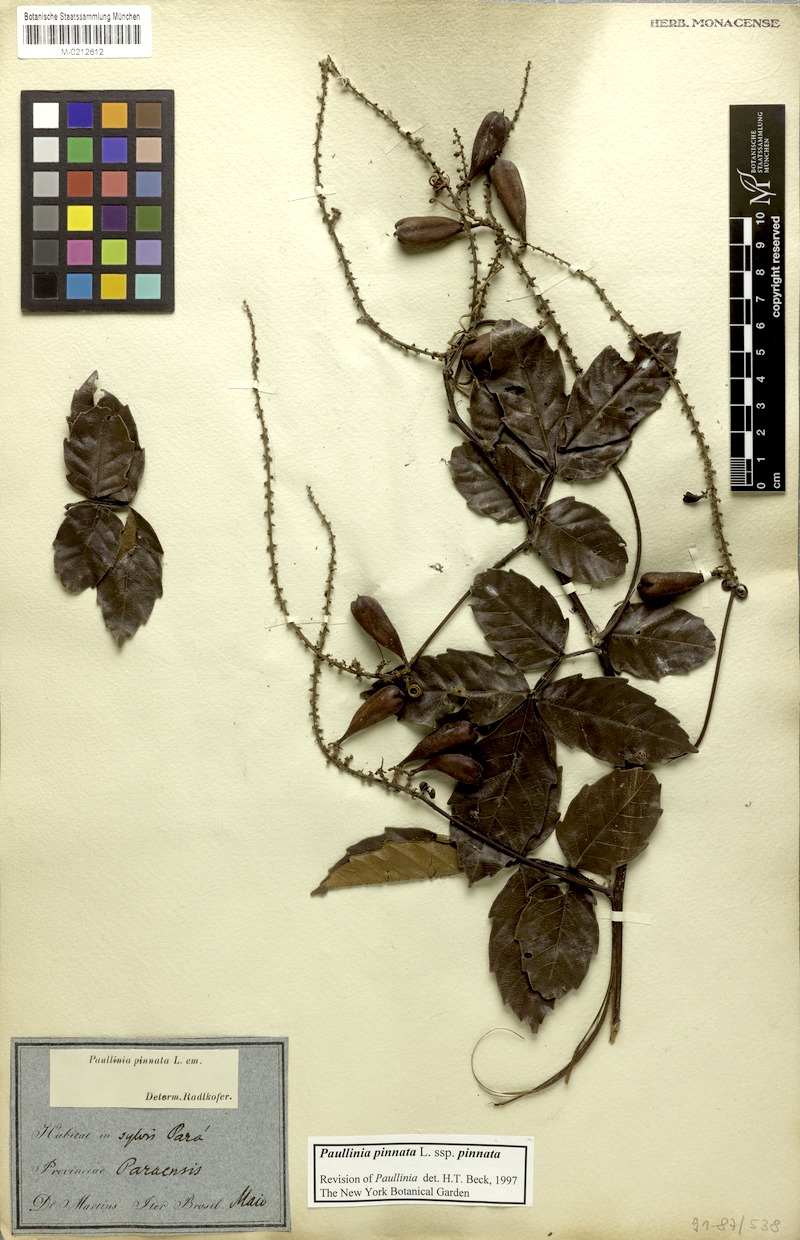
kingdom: Plantae
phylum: Tracheophyta
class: Magnoliopsida
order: Sapindales
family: Sapindaceae
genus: Paullinia
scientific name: Paullinia pinnata
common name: Barbasco
